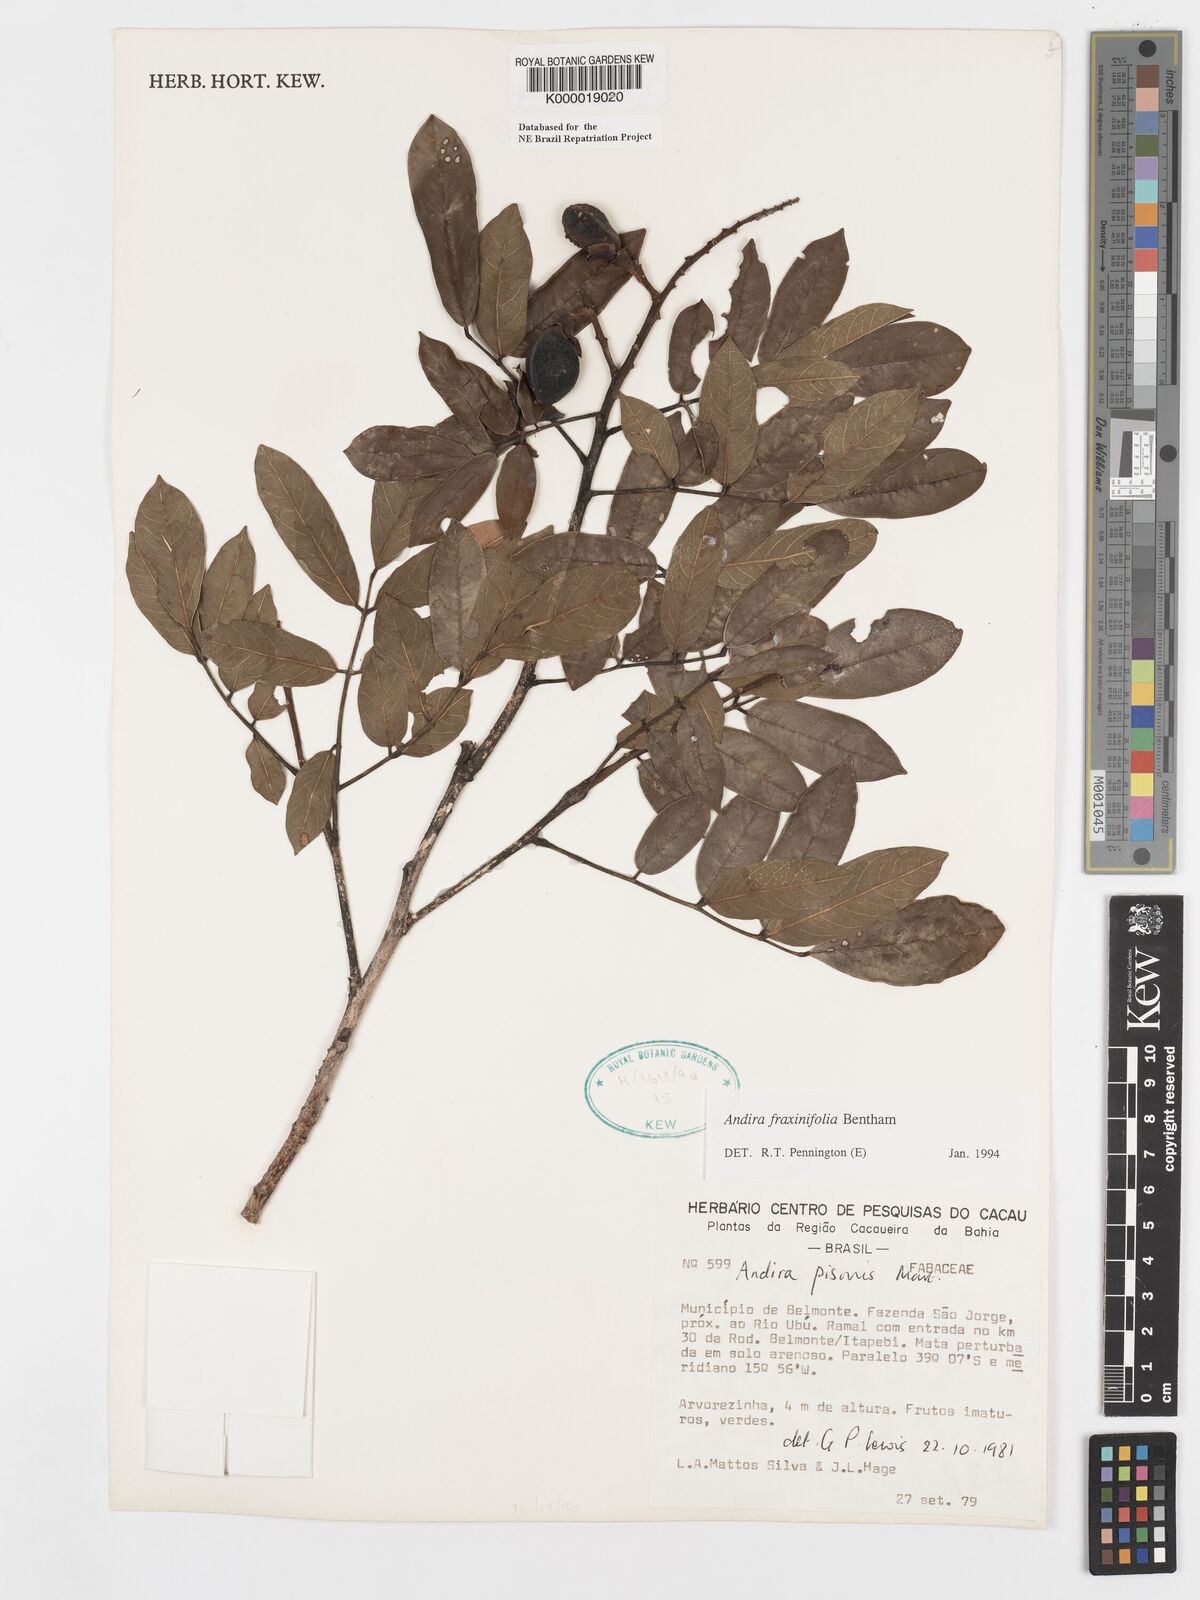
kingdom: Plantae
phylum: Tracheophyta
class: Magnoliopsida
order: Fabales
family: Fabaceae
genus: Andira
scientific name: Andira fraxinifolia
